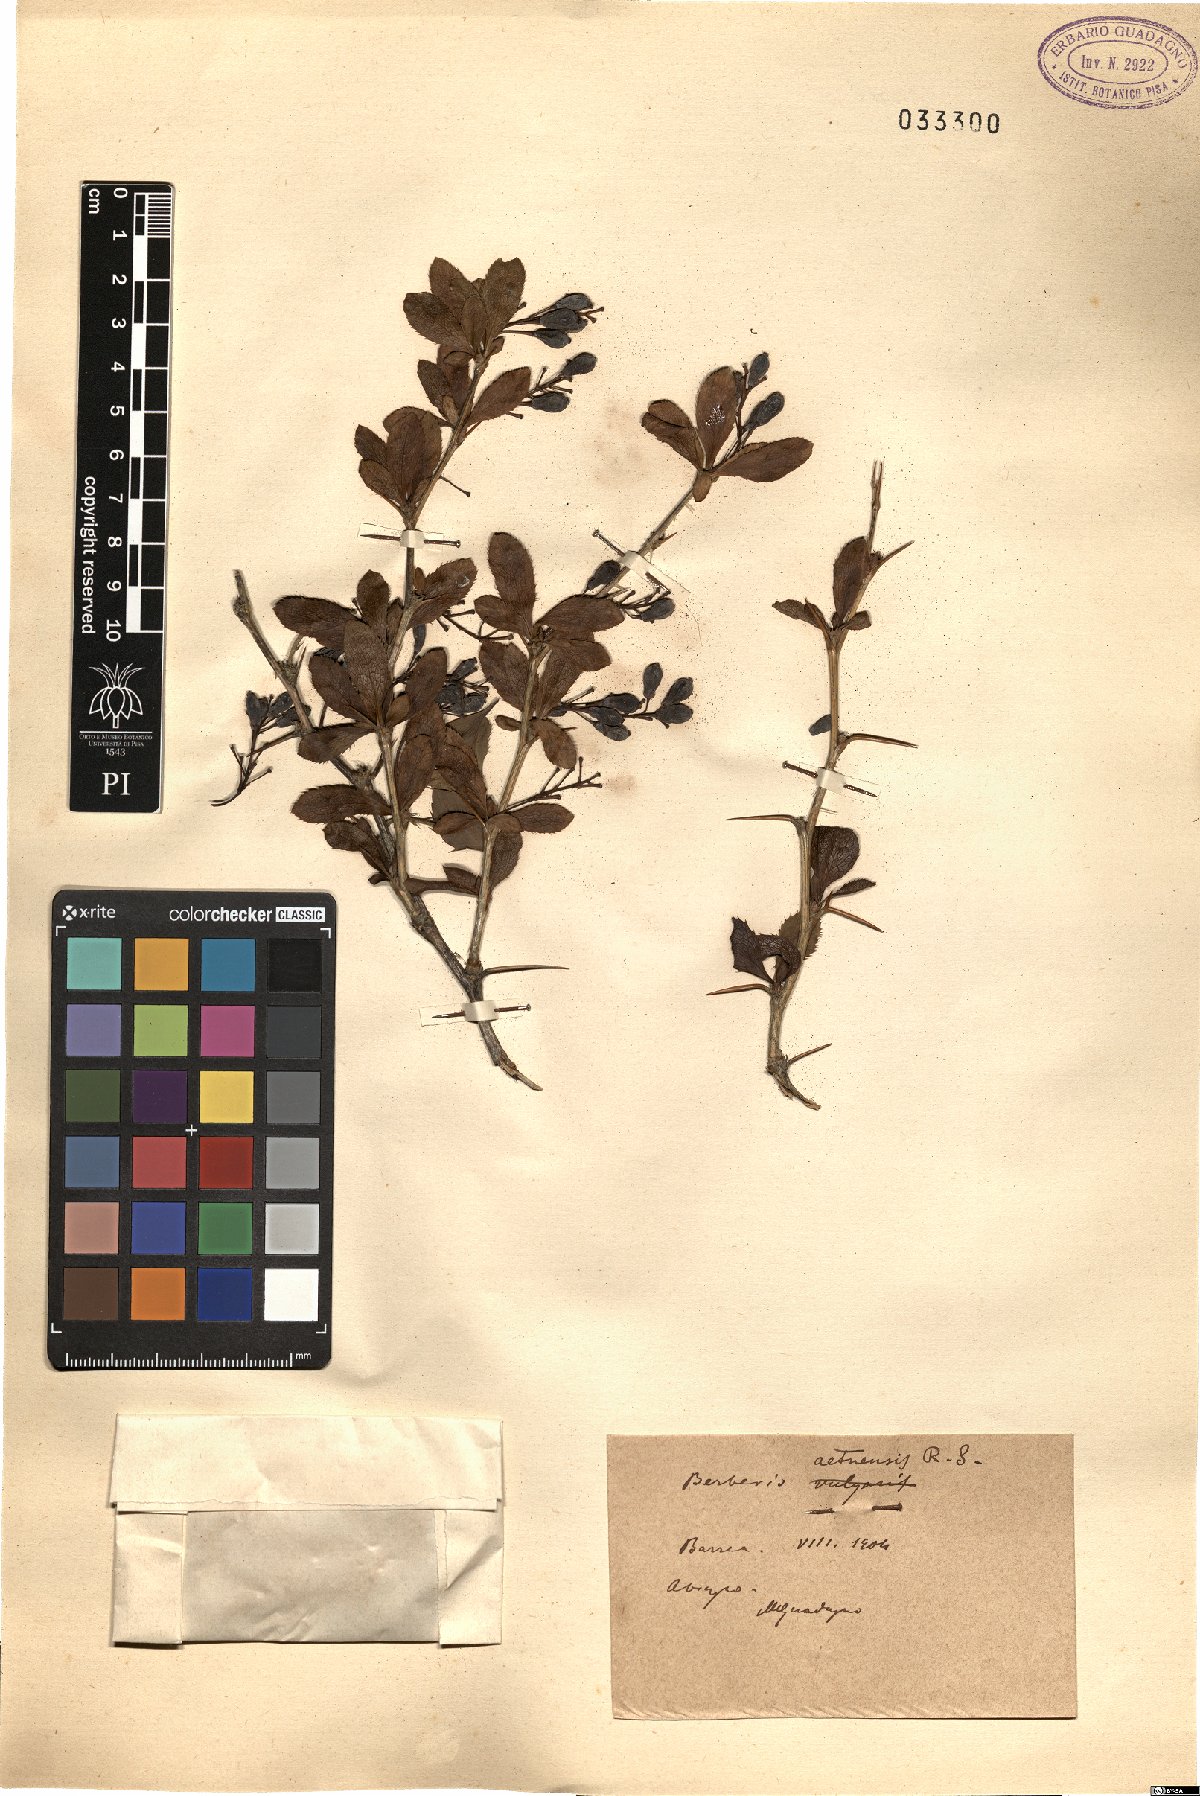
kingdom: Plantae
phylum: Tracheophyta
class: Magnoliopsida
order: Ranunculales
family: Berberidaceae
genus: Berberis
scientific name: Berberis aetnensis
